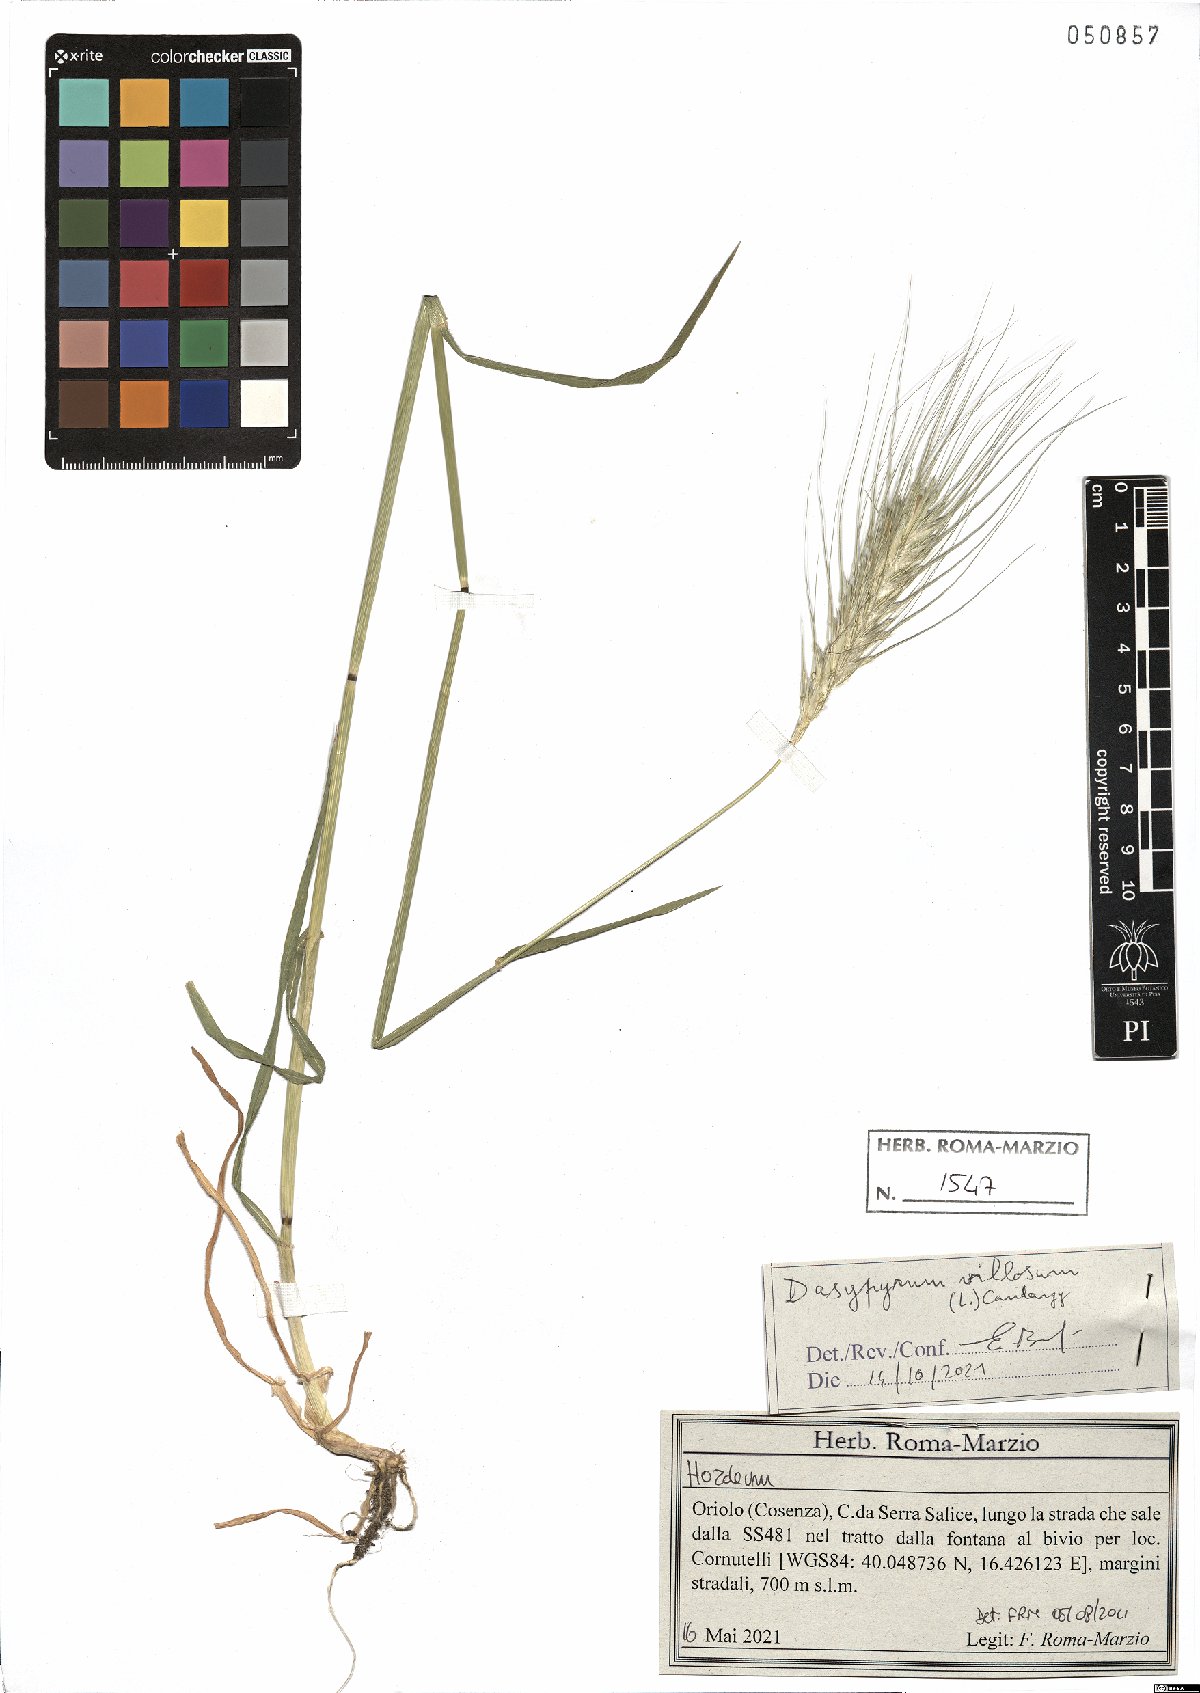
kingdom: Plantae
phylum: Tracheophyta
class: Liliopsida
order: Poales
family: Poaceae
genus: Dasypyrum
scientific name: Dasypyrum villosum
